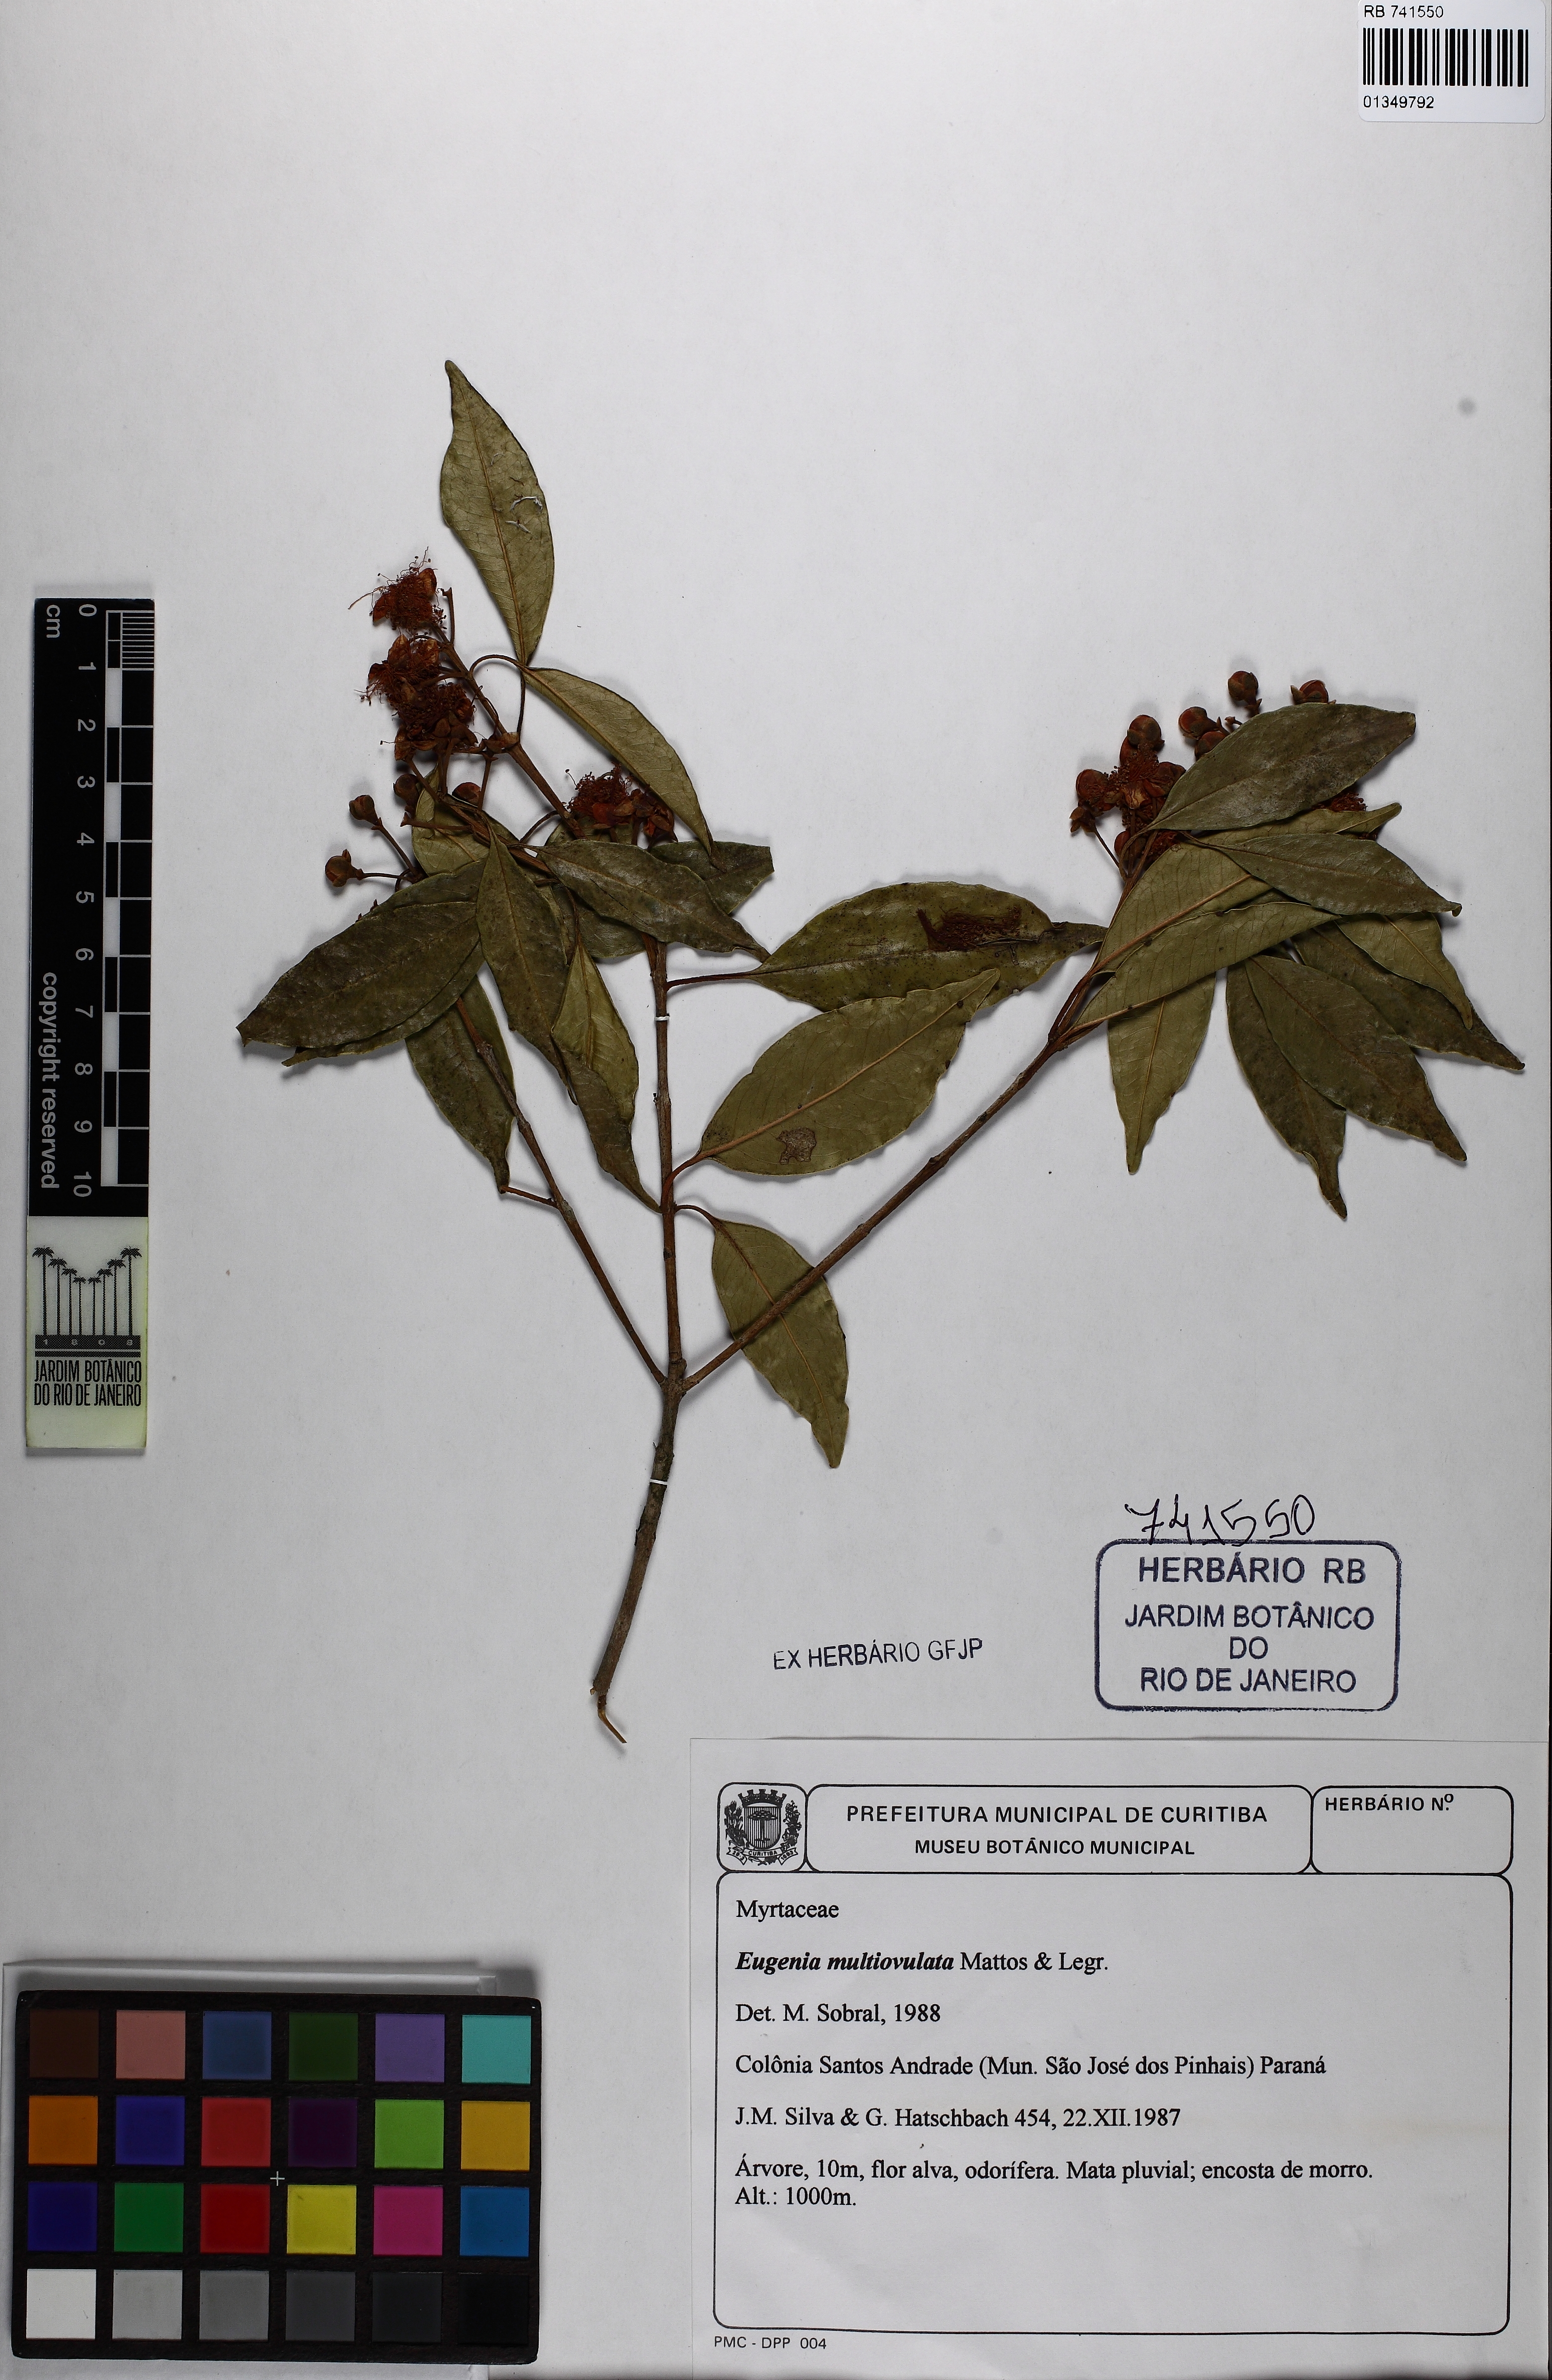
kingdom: Plantae
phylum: Tracheophyta
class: Magnoliopsida
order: Myrtales
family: Myrtaceae
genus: Eugenia
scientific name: Eugenia multiovulata
